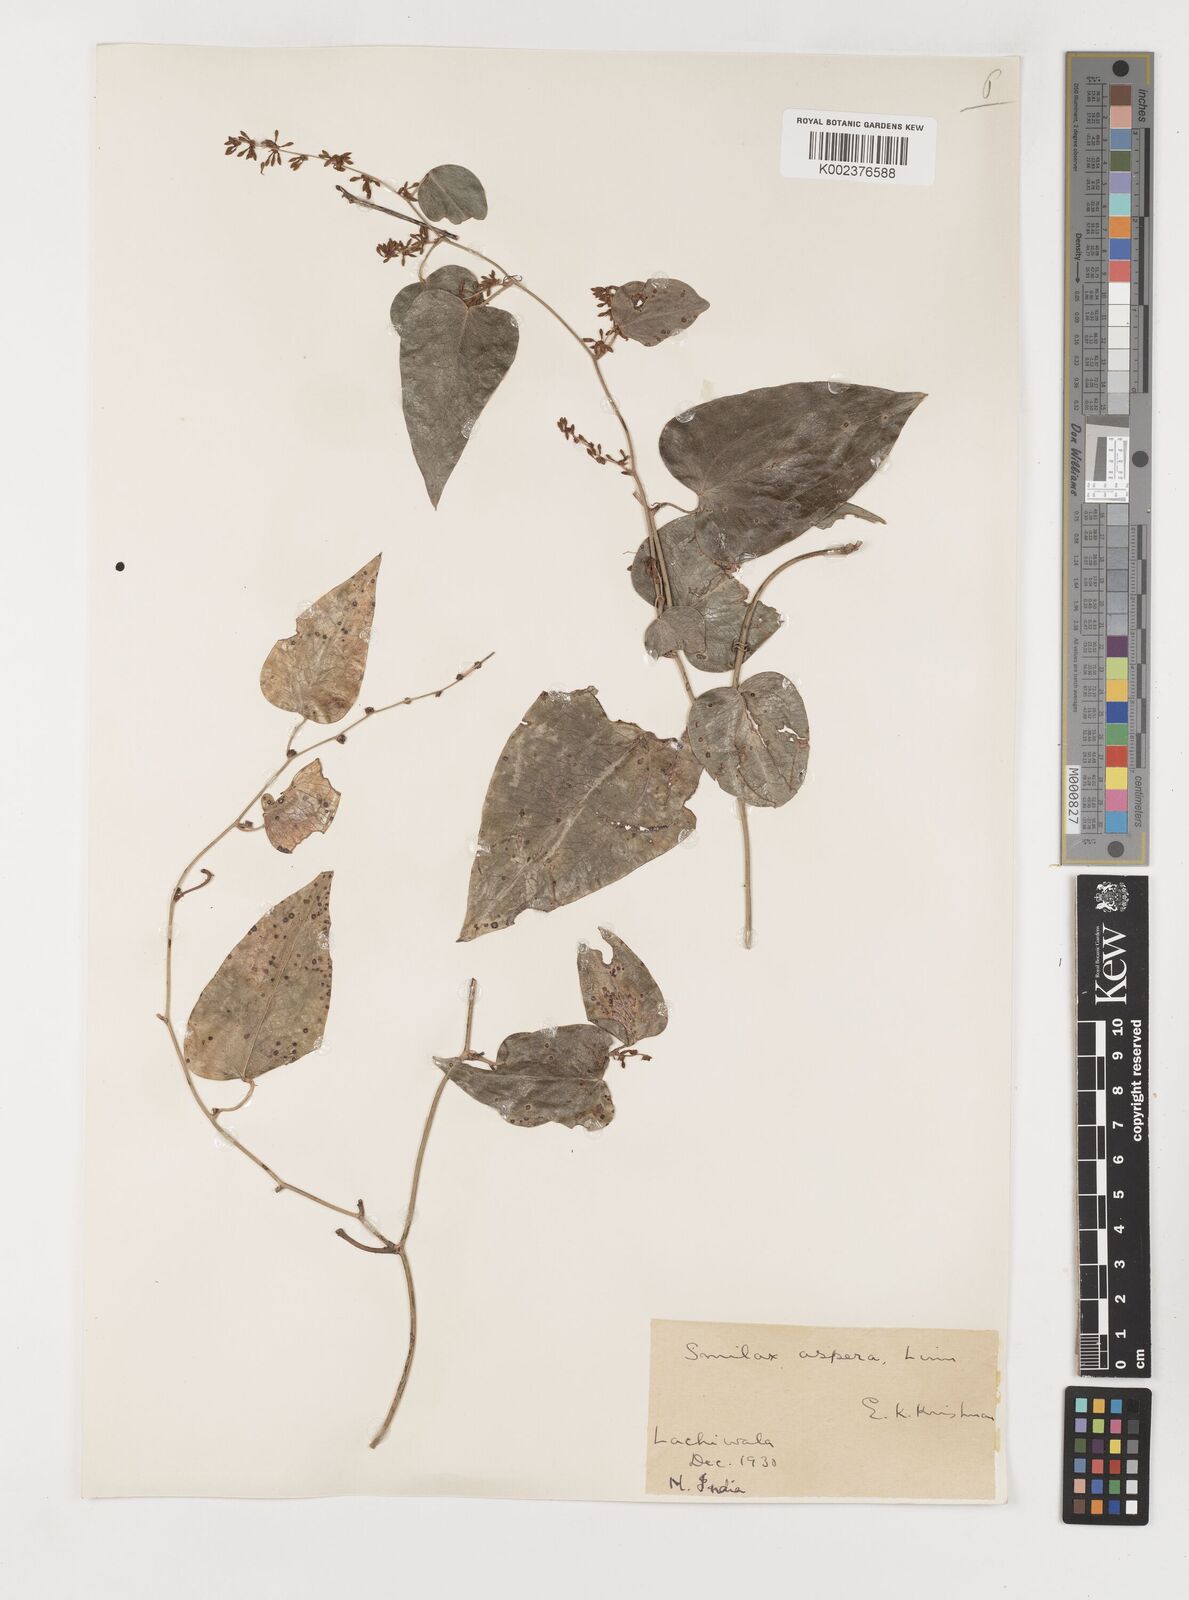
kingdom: Plantae
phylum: Tracheophyta
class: Liliopsida
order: Liliales
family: Smilacaceae
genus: Smilax
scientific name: Smilax aspera
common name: Common smilax
